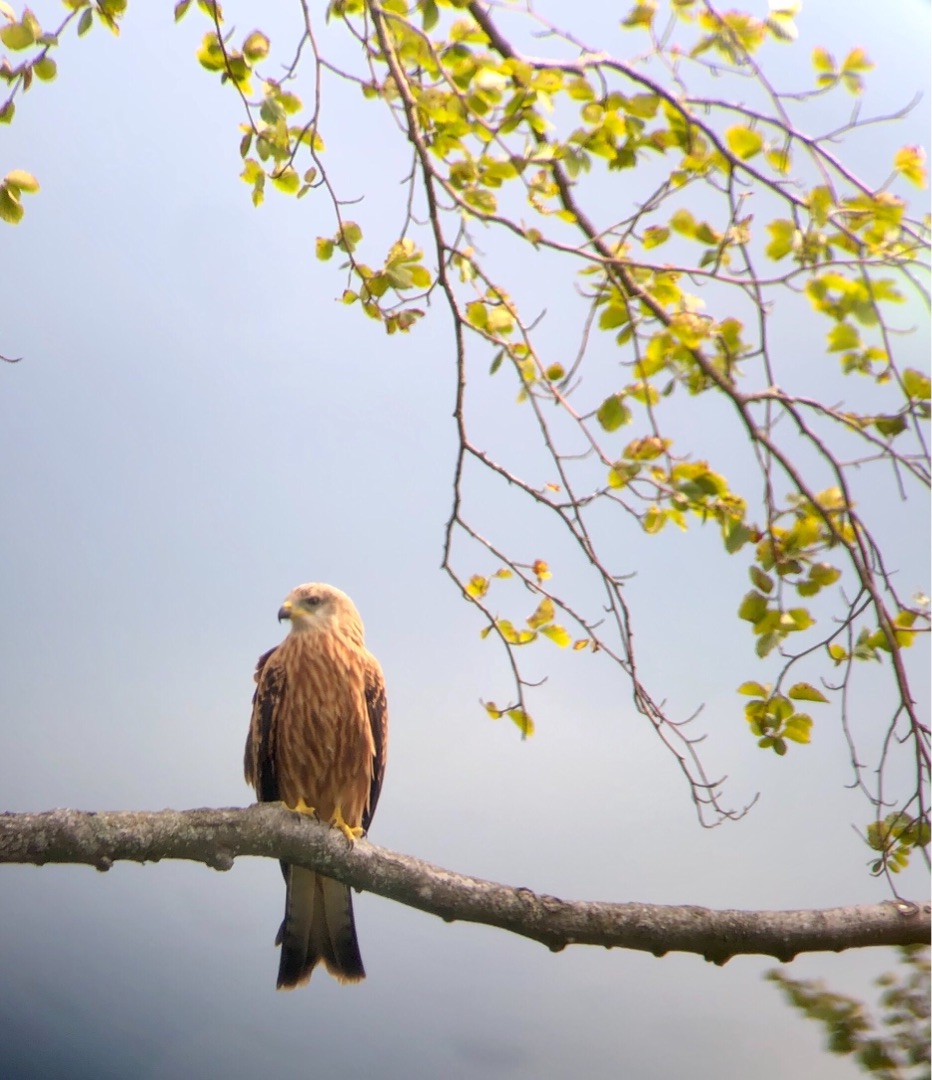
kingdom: Animalia
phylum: Chordata
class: Aves
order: Accipitriformes
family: Accipitridae
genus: Milvus
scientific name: Milvus milvus
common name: Rød glente
